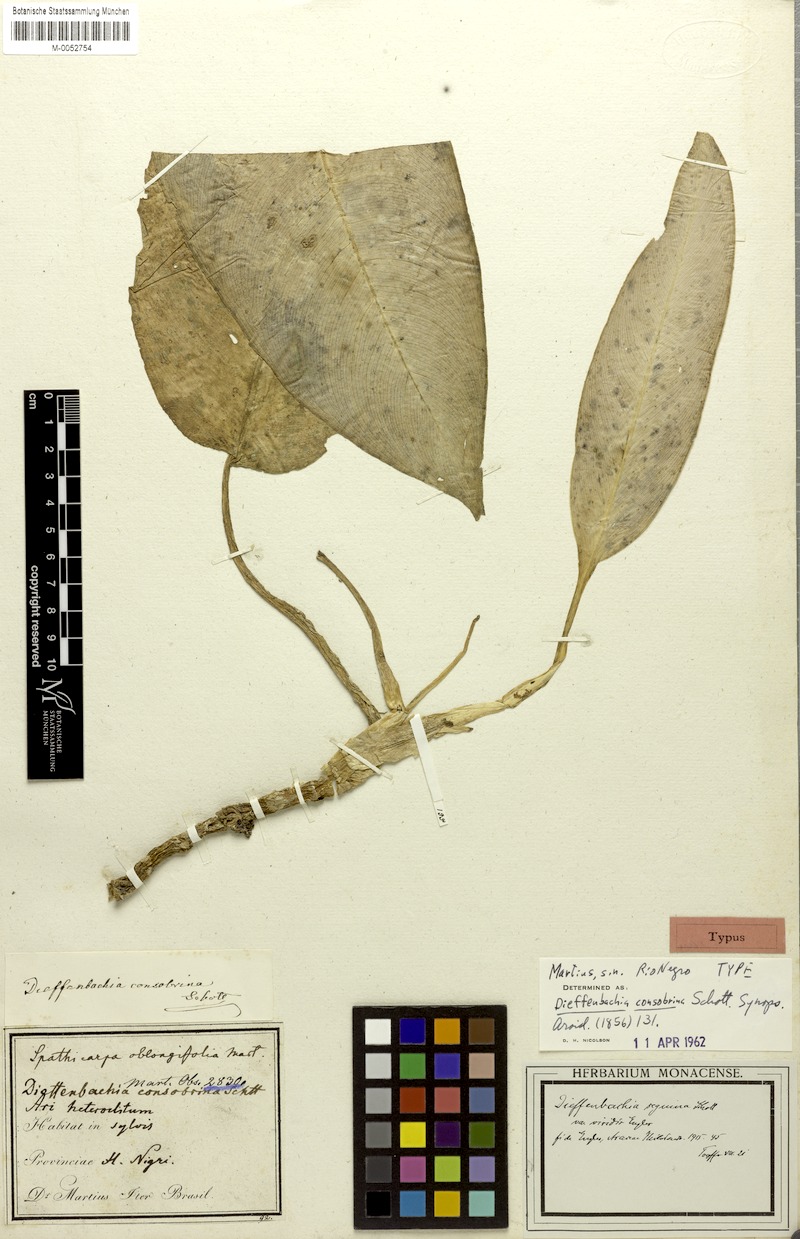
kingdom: Plantae
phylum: Tracheophyta
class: Liliopsida
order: Alismatales
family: Araceae
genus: Dieffenbachia
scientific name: Dieffenbachia seguine
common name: Dumbcane
